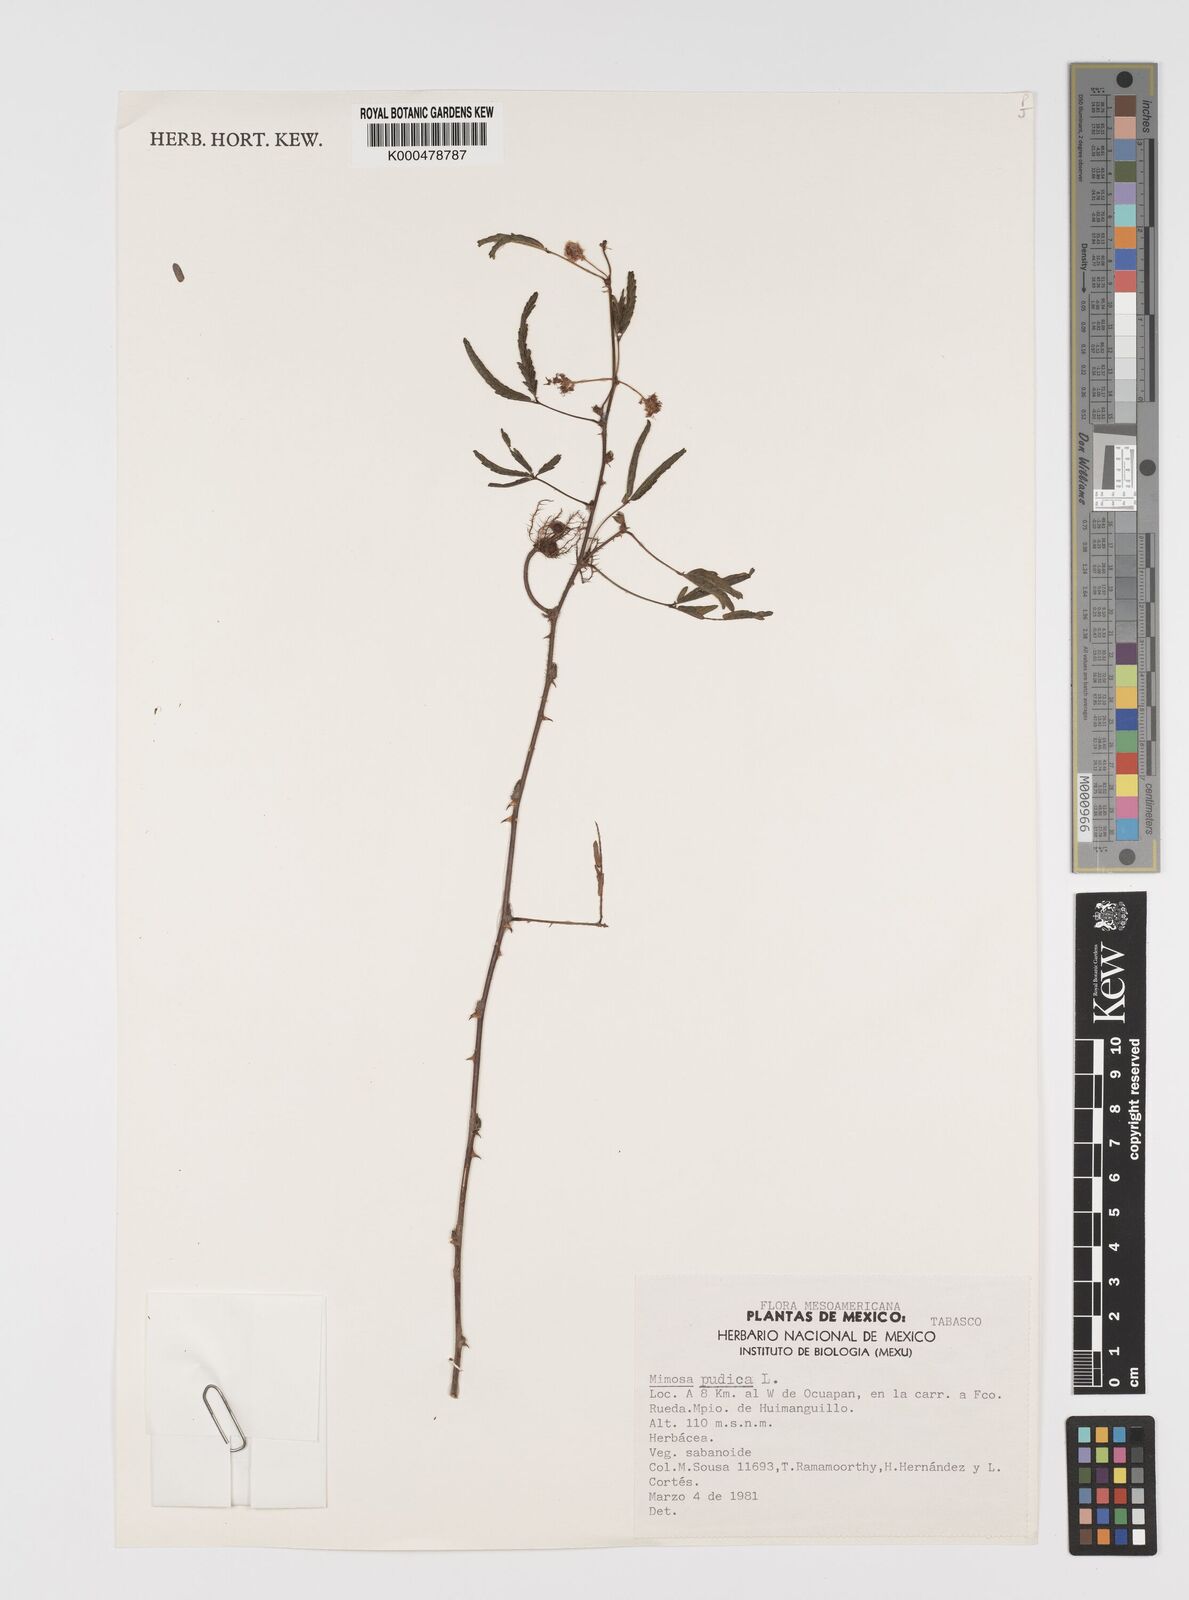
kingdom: Plantae
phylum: Tracheophyta
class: Magnoliopsida
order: Fabales
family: Fabaceae
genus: Mimosa
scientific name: Mimosa pudica
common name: Sensitive plant
